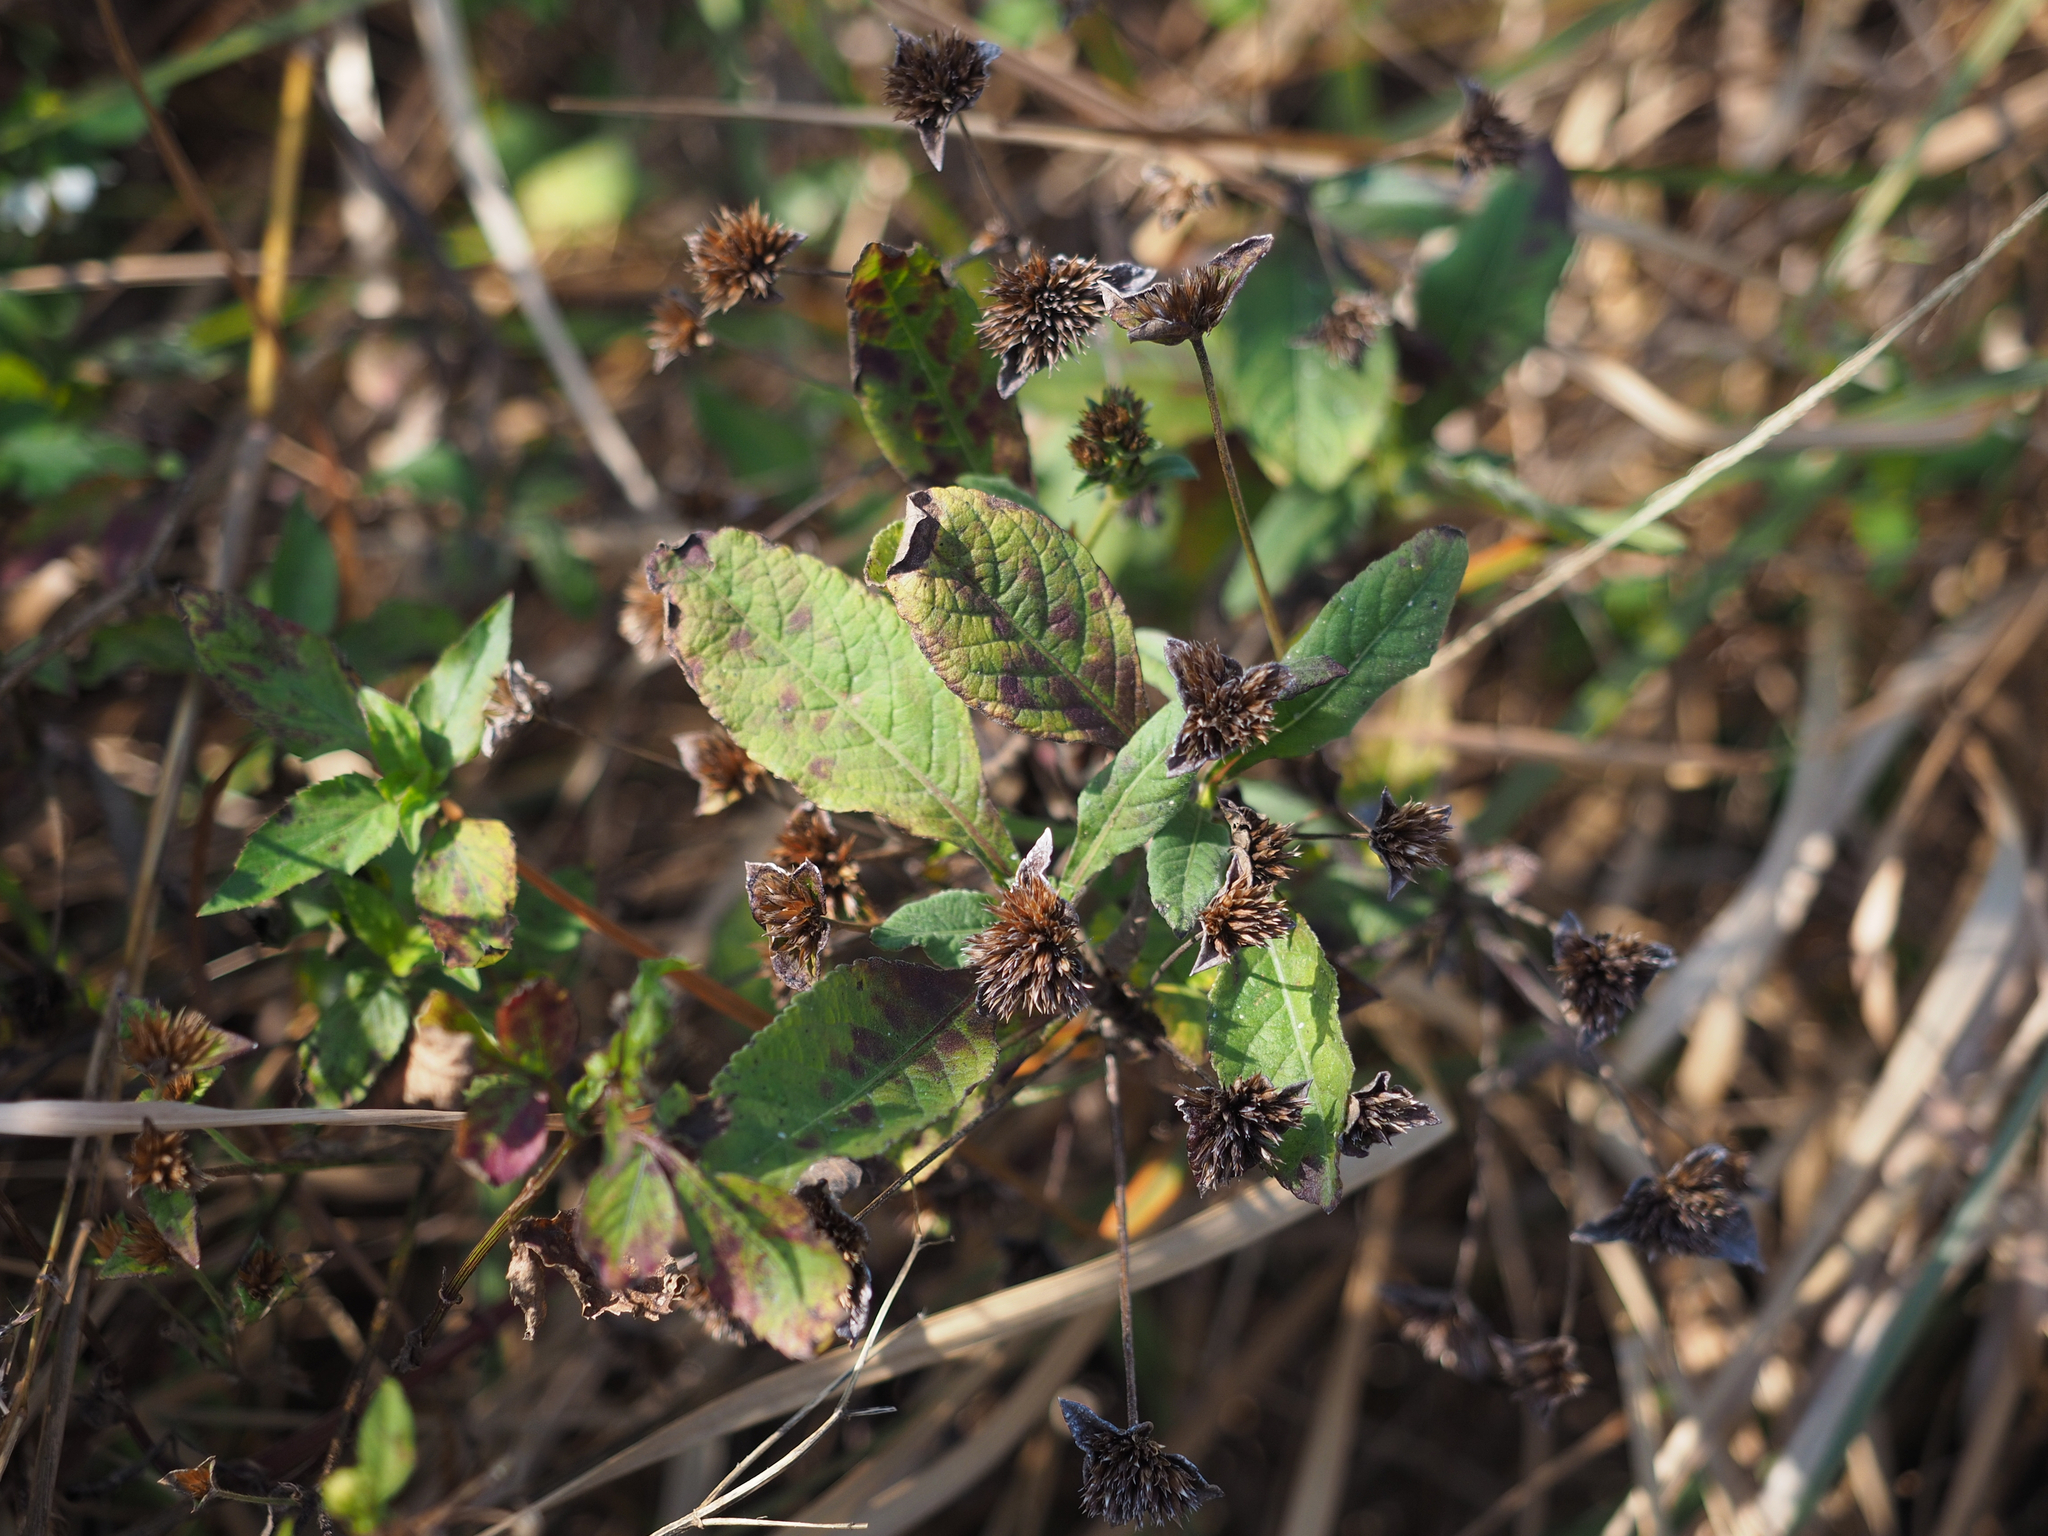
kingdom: Plantae
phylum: Tracheophyta
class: Magnoliopsida
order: Asterales
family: Asteraceae
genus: Elephantopus
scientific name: Elephantopus mollis
